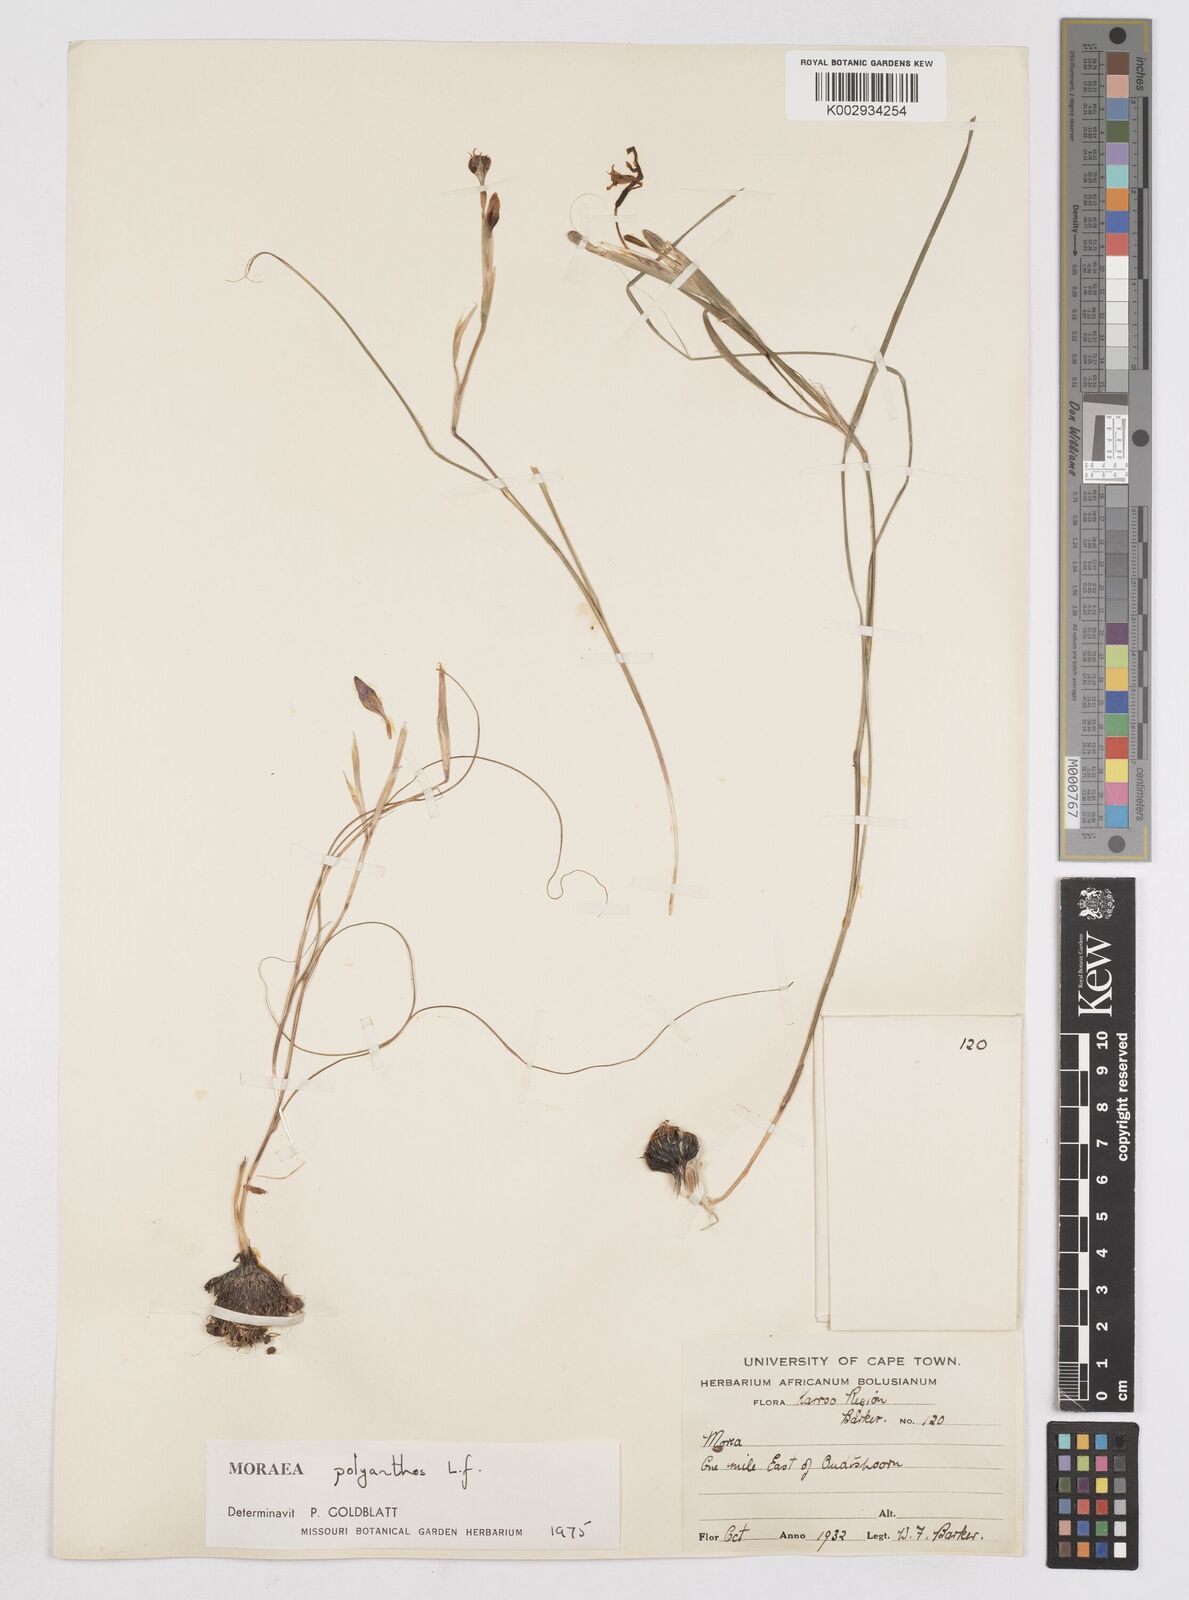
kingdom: Plantae
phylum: Tracheophyta
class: Liliopsida
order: Asparagales
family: Iridaceae
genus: Moraea
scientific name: Moraea bipartita
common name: Blue tulp
